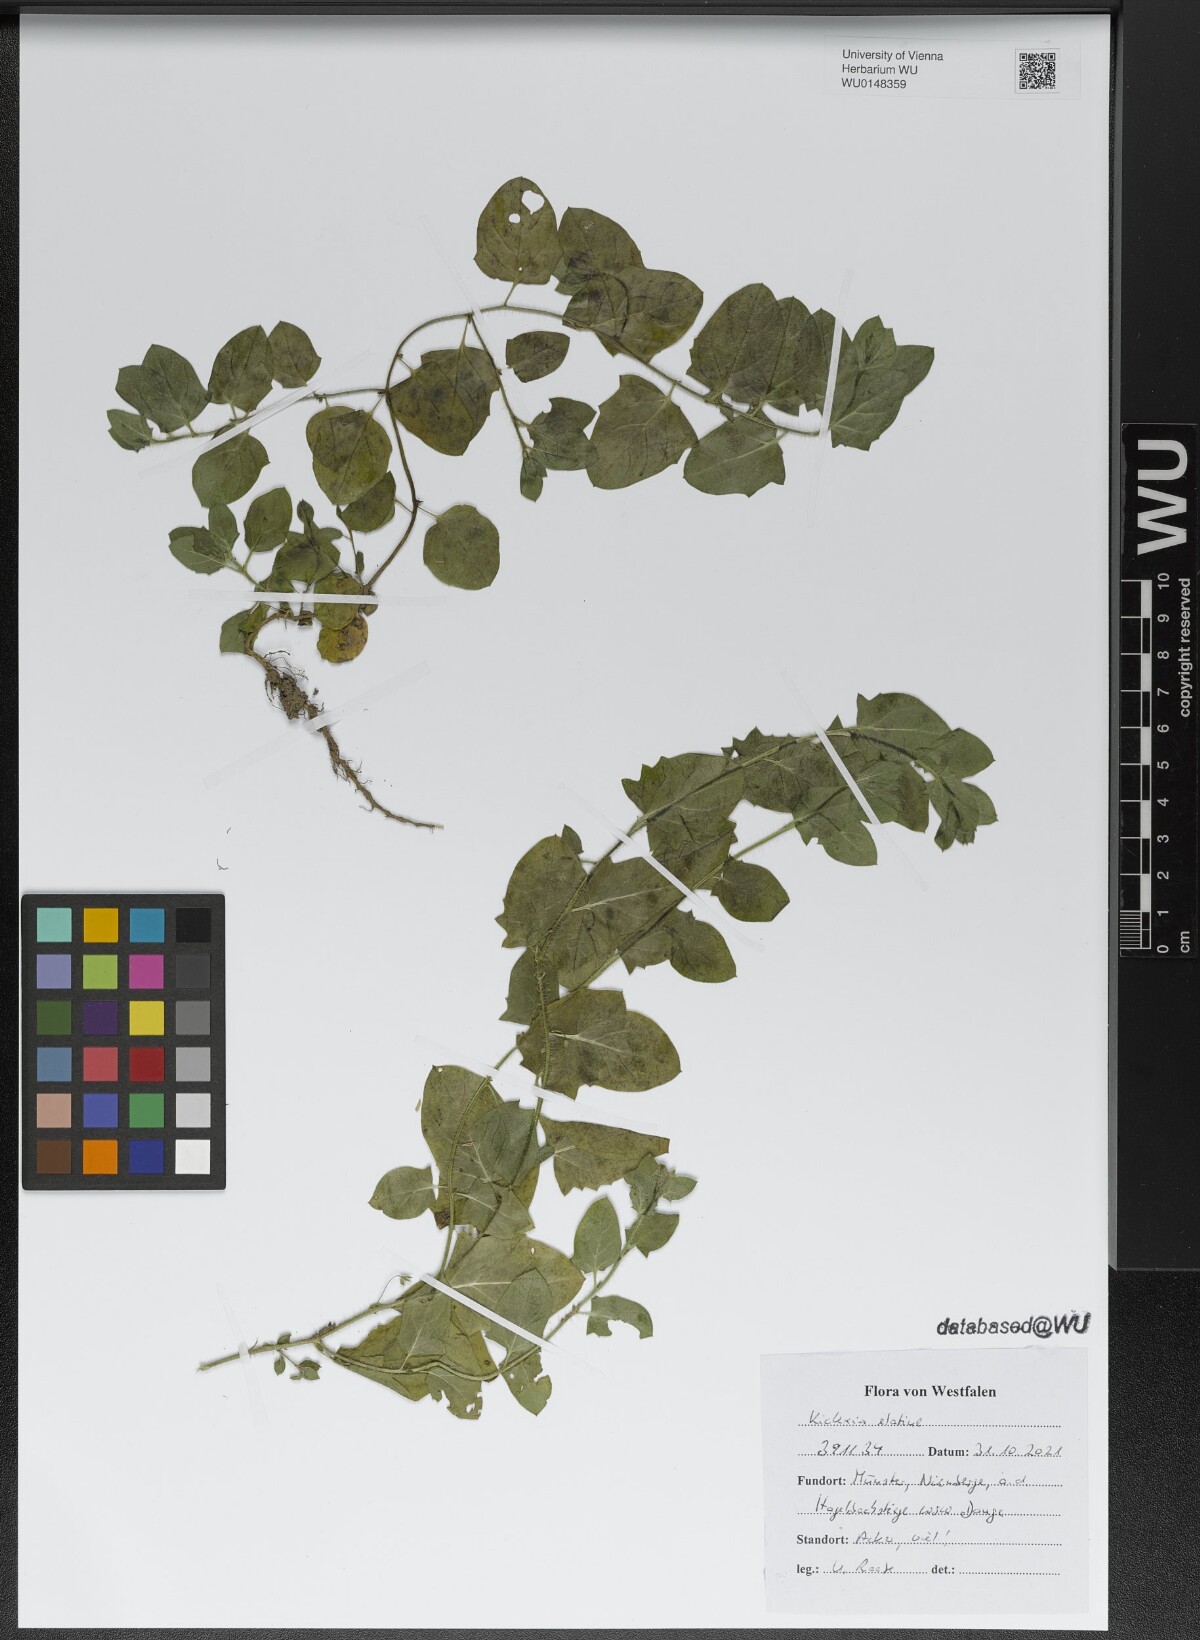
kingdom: Plantae
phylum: Tracheophyta
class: Magnoliopsida
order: Lamiales
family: Plantaginaceae
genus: Kickxia
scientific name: Kickxia elatine
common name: Sharp-leaved fluellen
